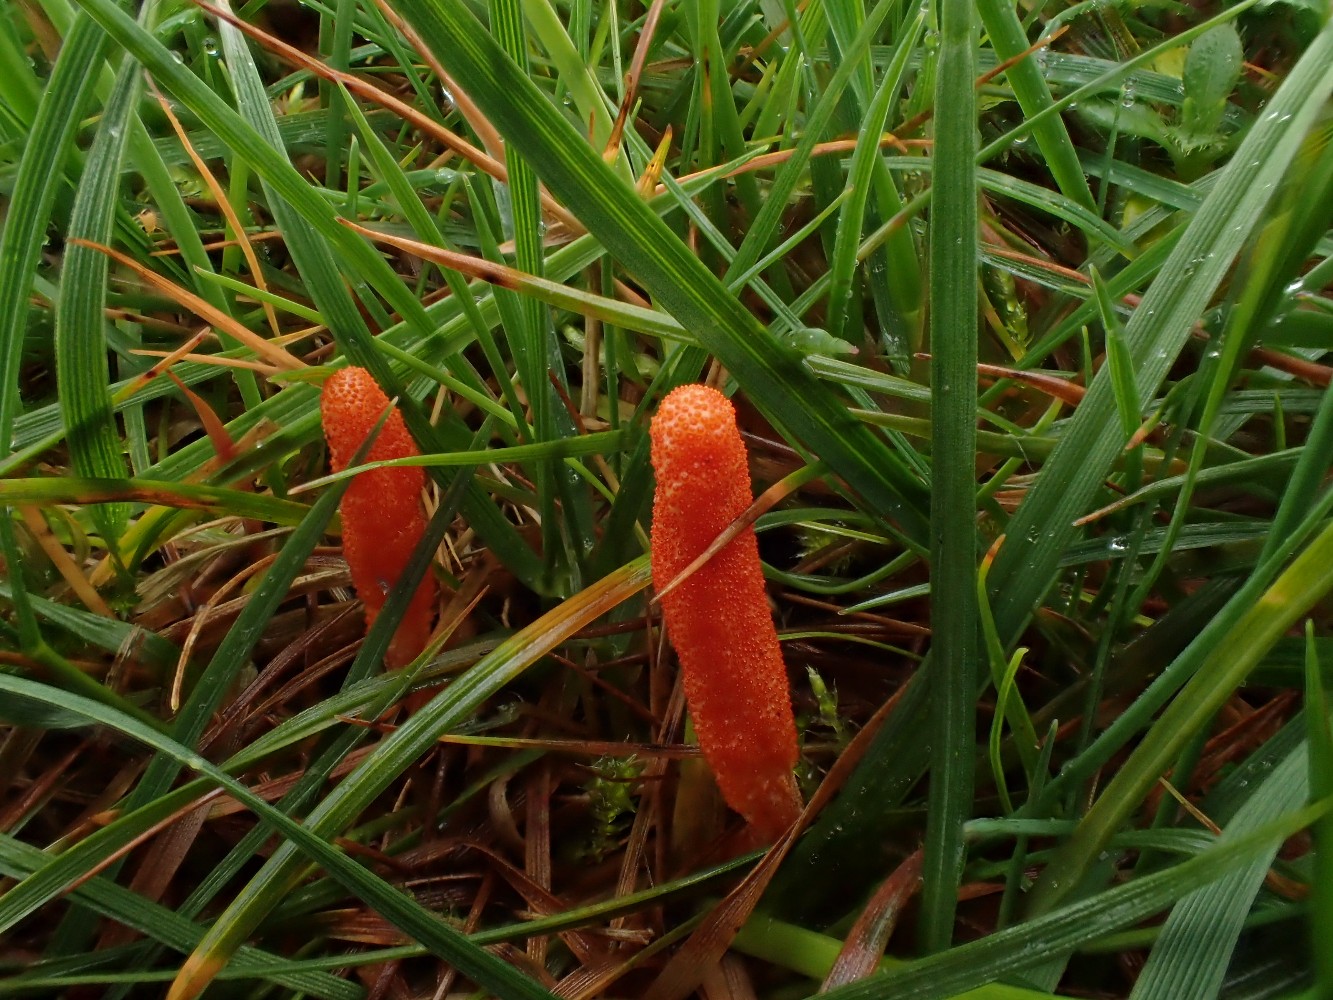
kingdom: Fungi
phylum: Ascomycota
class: Sordariomycetes
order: Hypocreales
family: Cordycipitaceae
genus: Cordyceps
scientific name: Cordyceps militaris
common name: puppe-snyltekølle
